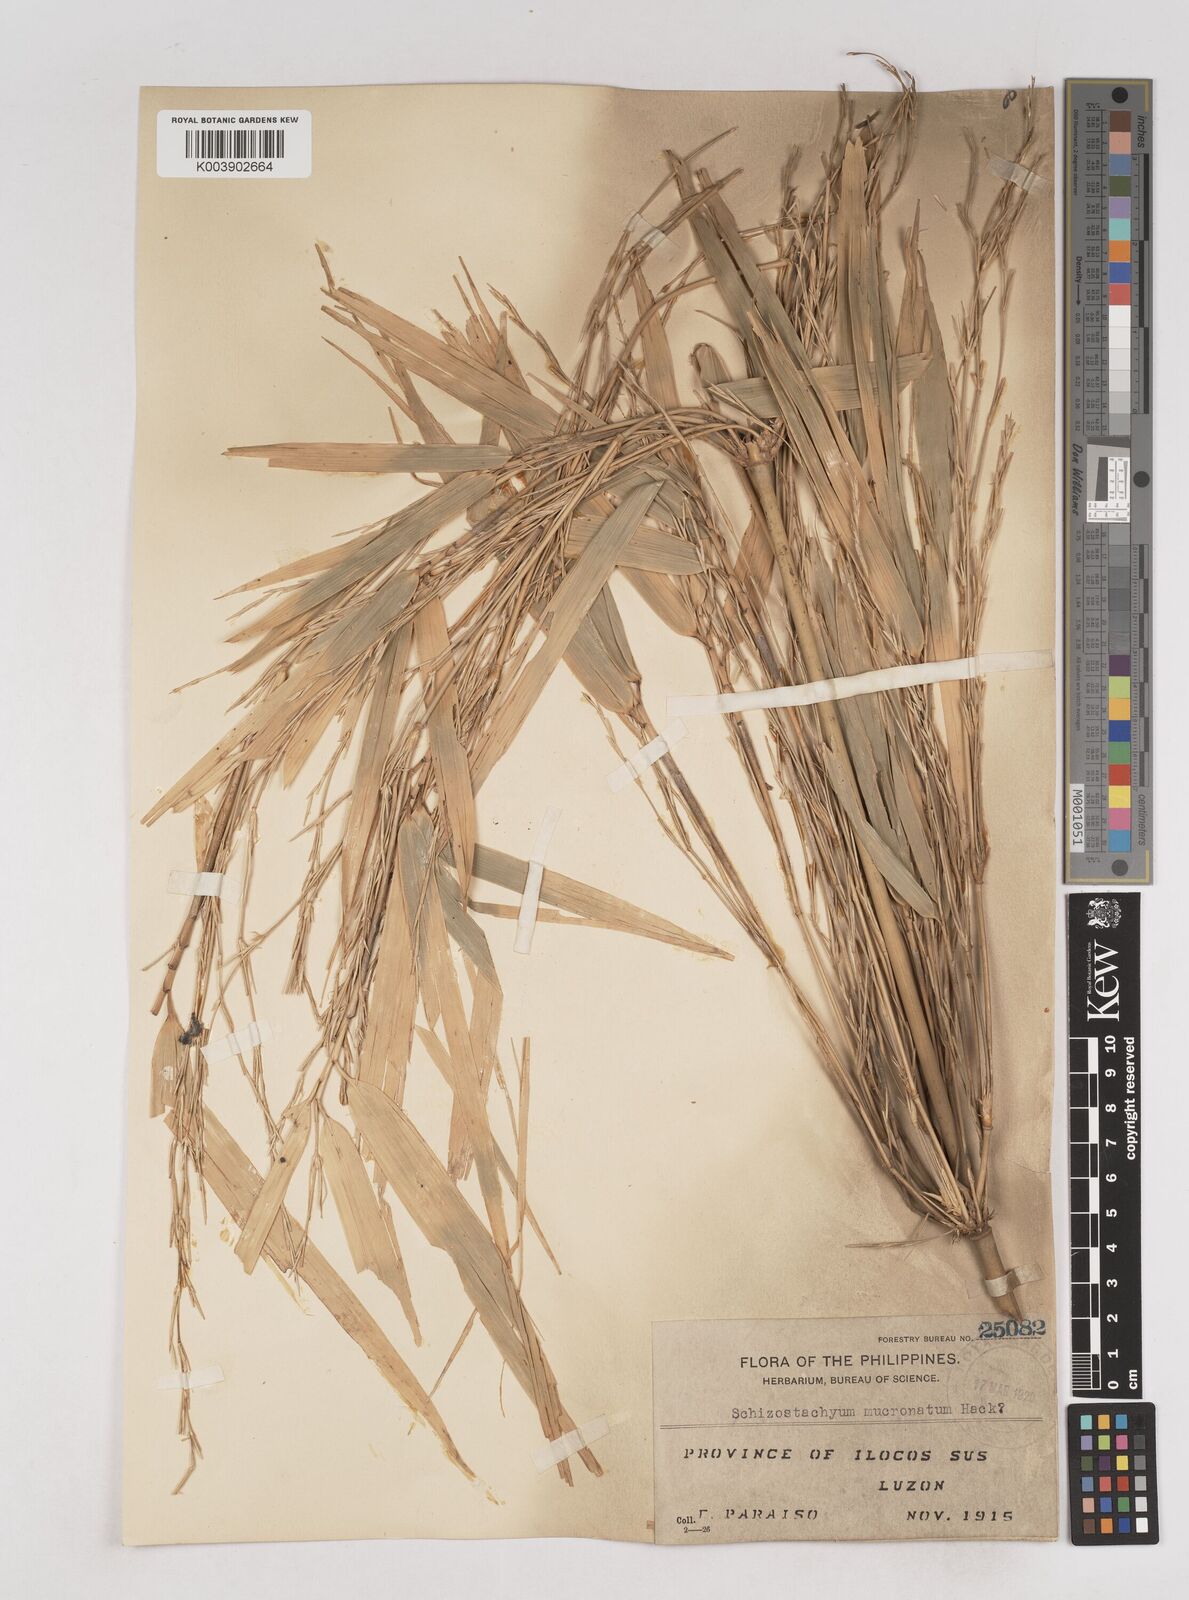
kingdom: Plantae
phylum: Tracheophyta
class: Liliopsida
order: Poales
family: Poaceae
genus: Schizostachyum
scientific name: Schizostachyum lumampao
